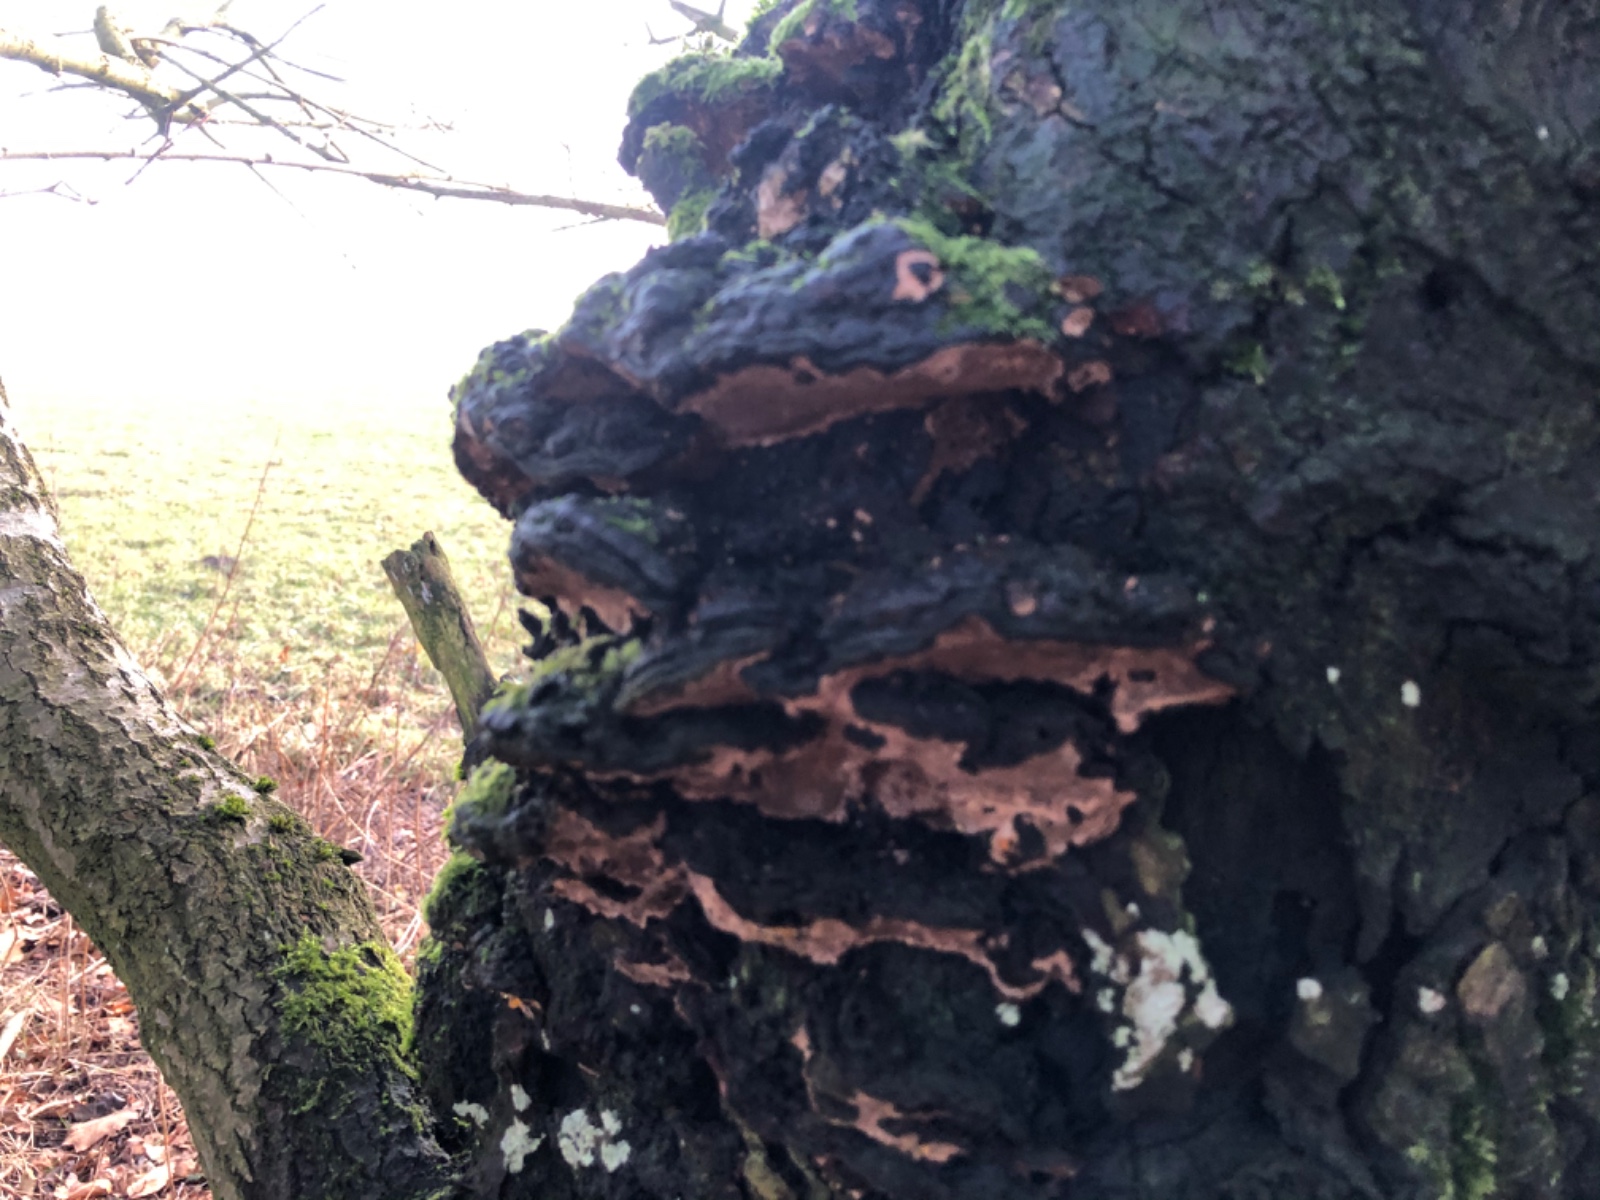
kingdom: Fungi
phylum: Basidiomycota
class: Agaricomycetes
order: Hymenochaetales
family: Hymenochaetaceae
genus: Phellinopsis
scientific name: Phellinopsis conchata
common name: pile-ildporesvamp
